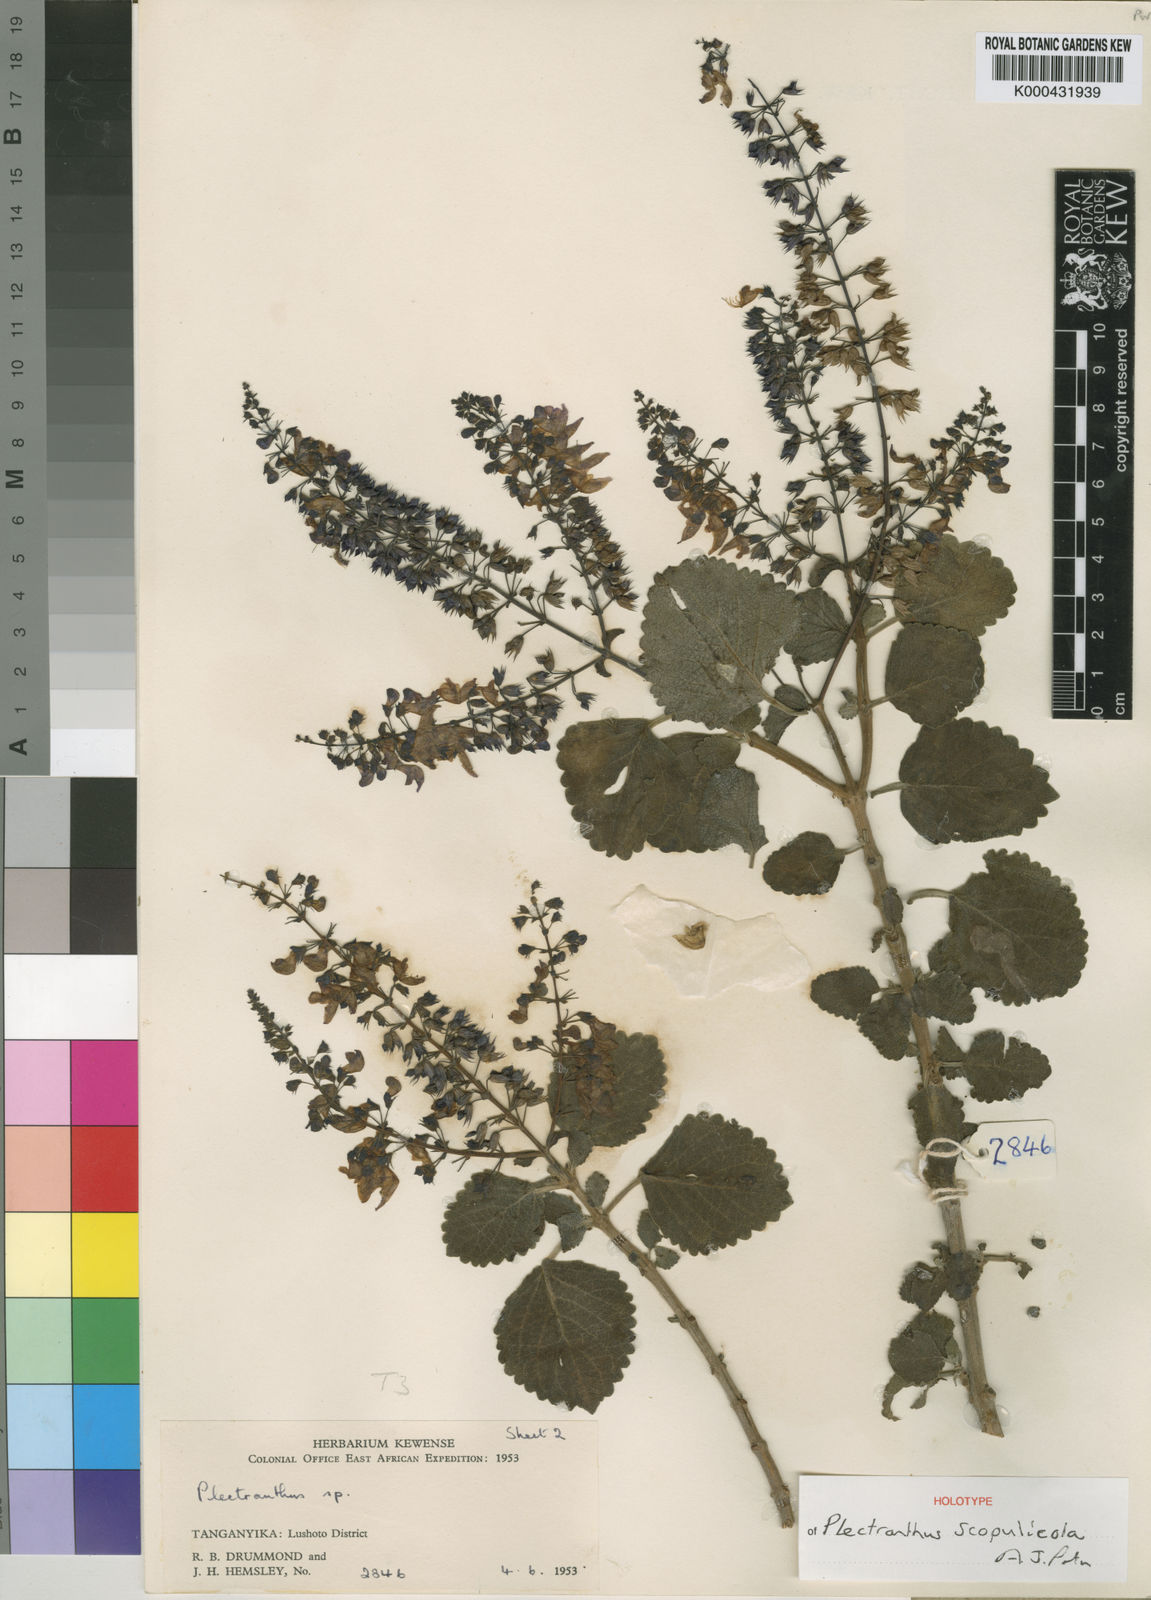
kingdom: Plantae
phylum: Tracheophyta
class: Magnoliopsida
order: Lamiales
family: Lamiaceae
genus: Equilabium
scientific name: Equilabium scopulicola
